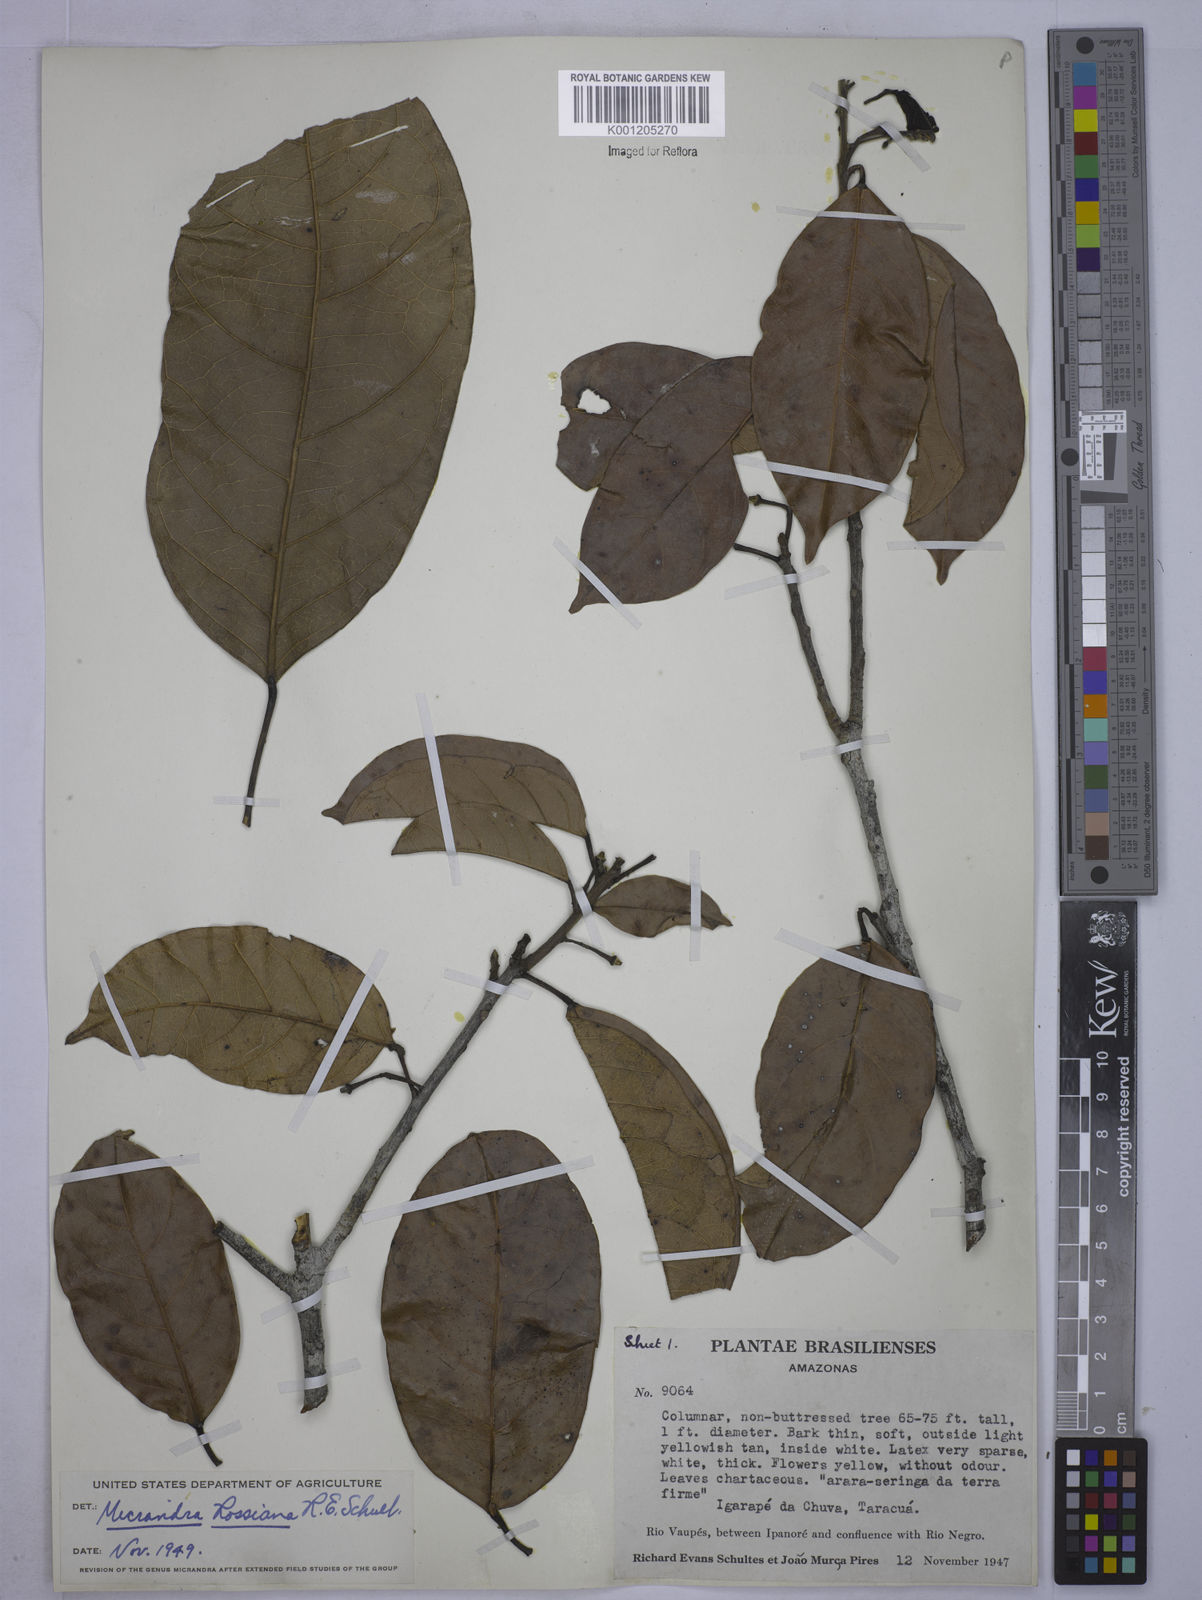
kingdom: Plantae
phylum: Tracheophyta
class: Magnoliopsida
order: Malpighiales
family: Euphorbiaceae
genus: Micrandra
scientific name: Micrandra rossiana
